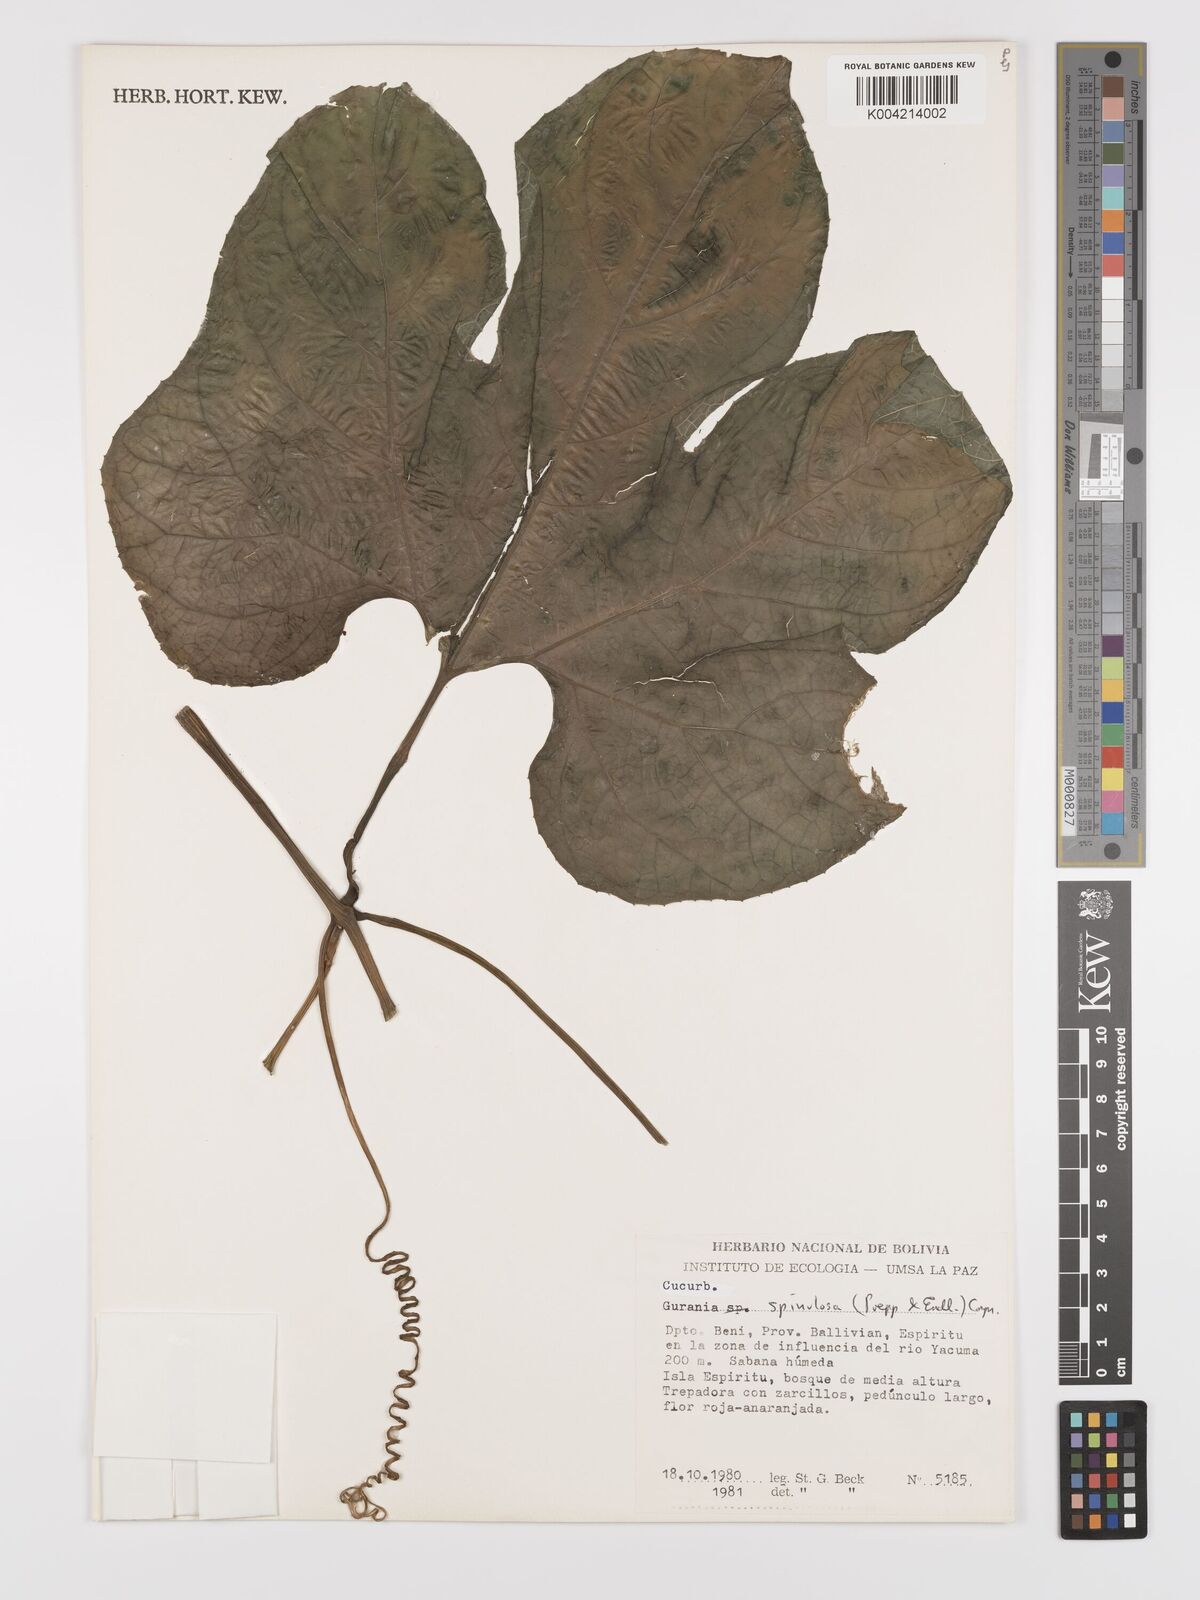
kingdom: Plantae
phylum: Tracheophyta
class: Magnoliopsida
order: Cucurbitales
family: Cucurbitaceae
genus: Gurania
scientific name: Gurania lobata
